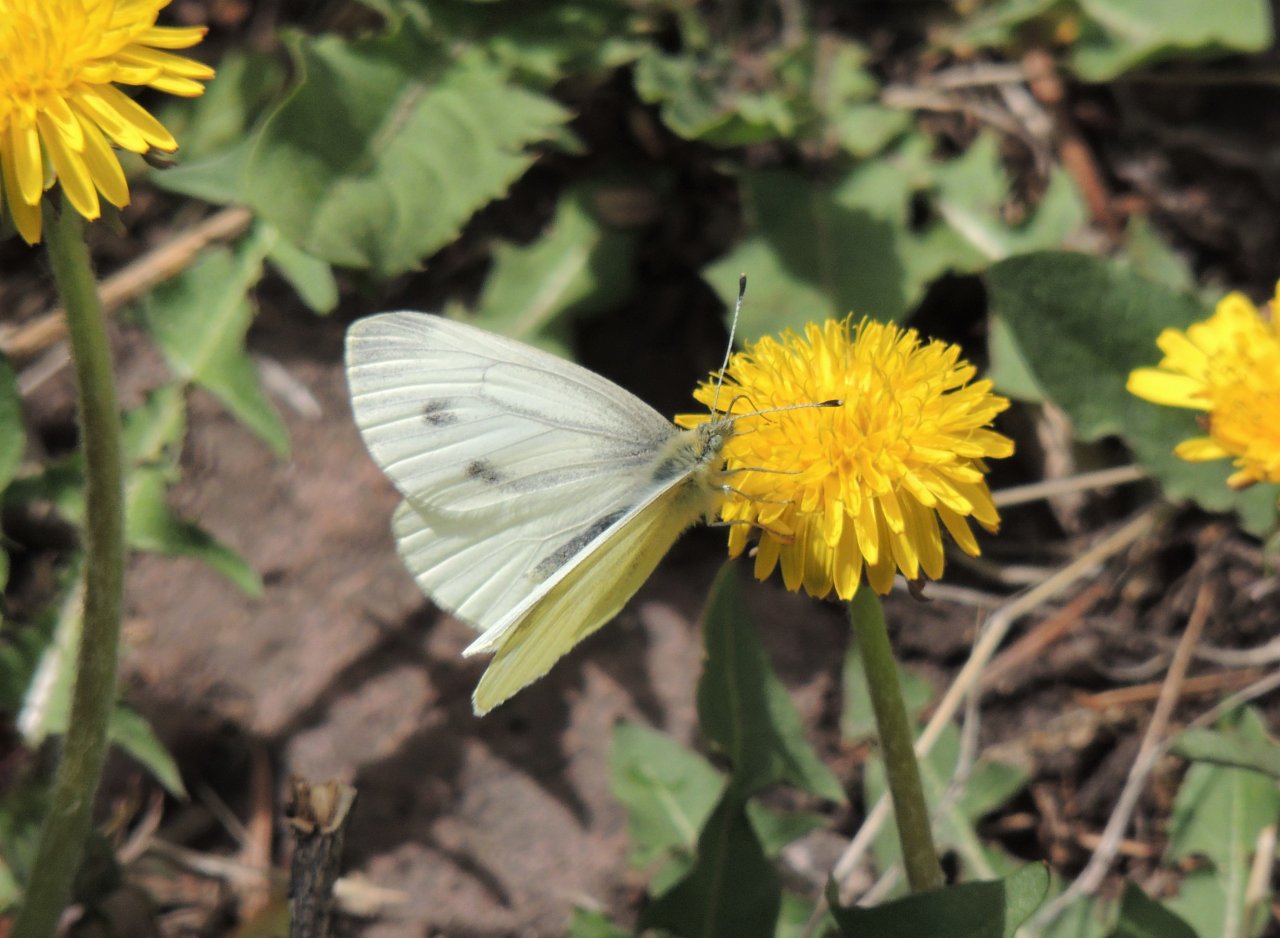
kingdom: Animalia
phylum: Arthropoda
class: Insecta
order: Lepidoptera
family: Pieridae
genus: Pieris
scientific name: Pieris rapae
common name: Cabbage White
